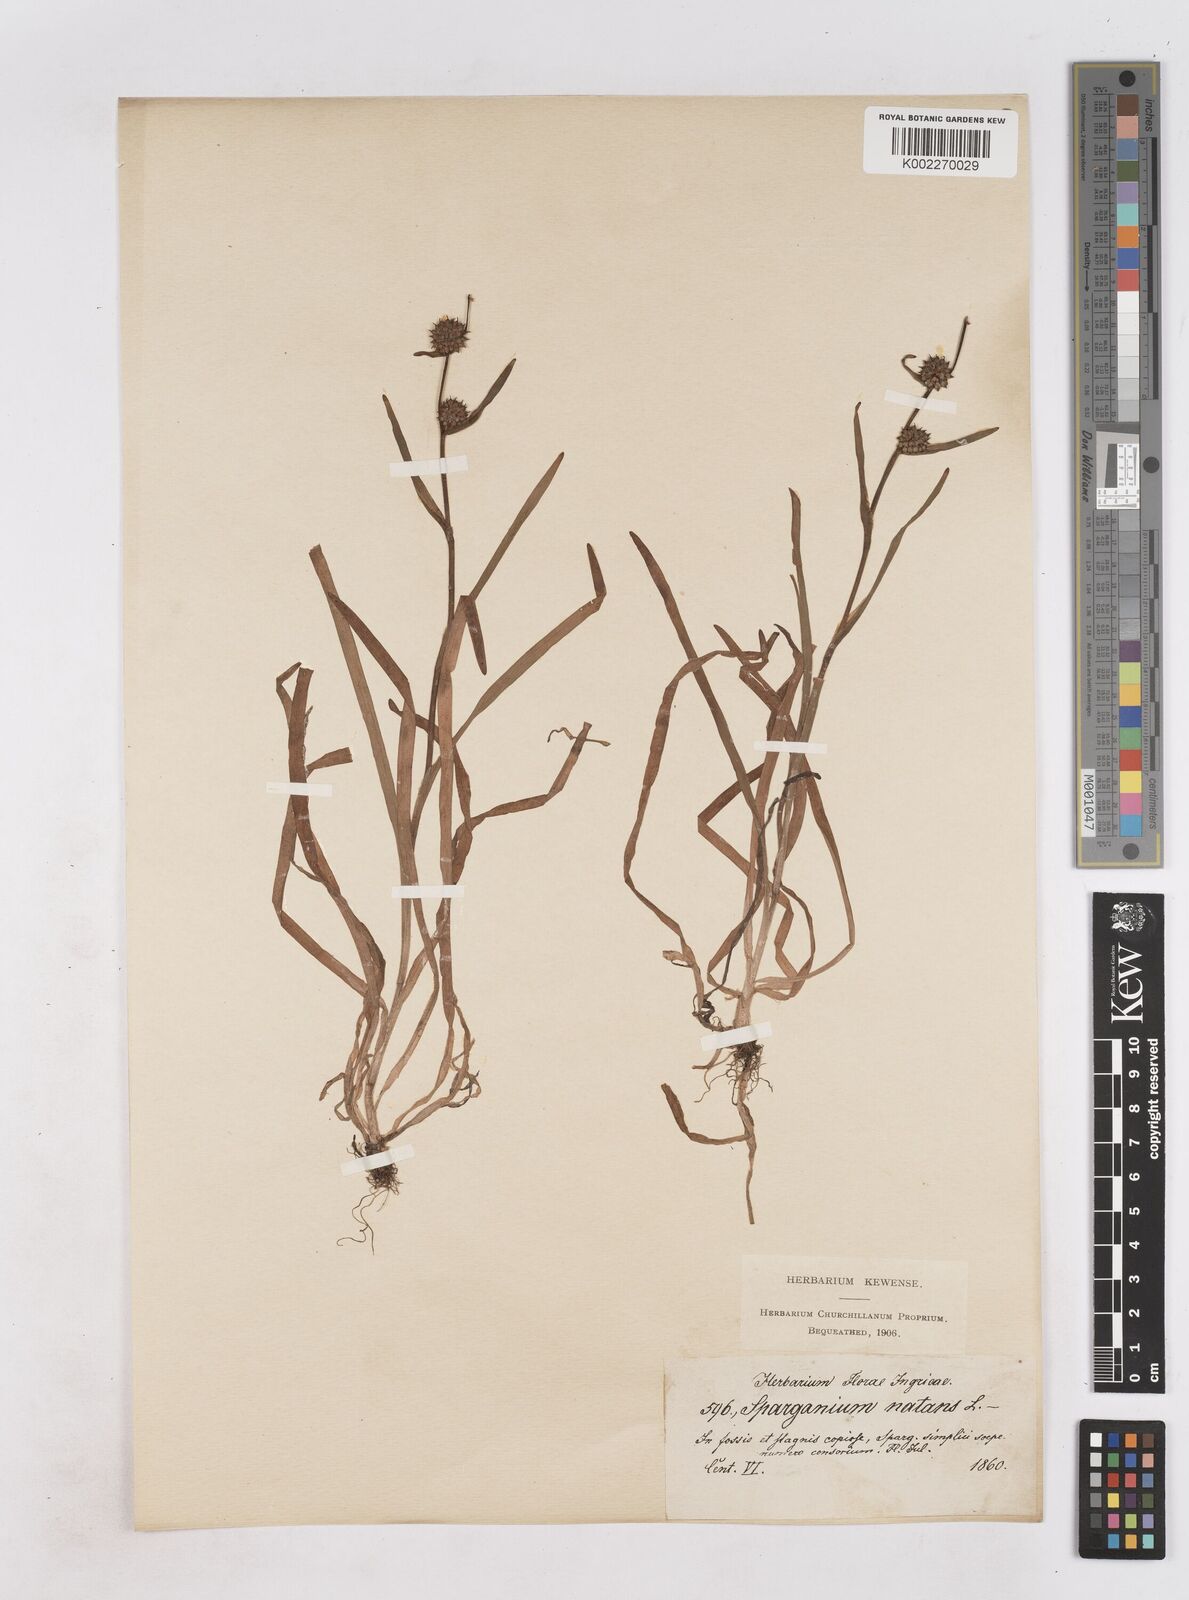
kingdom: Plantae
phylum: Tracheophyta
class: Liliopsida
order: Poales
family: Typhaceae
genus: Sparganium
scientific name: Sparganium gramineum
